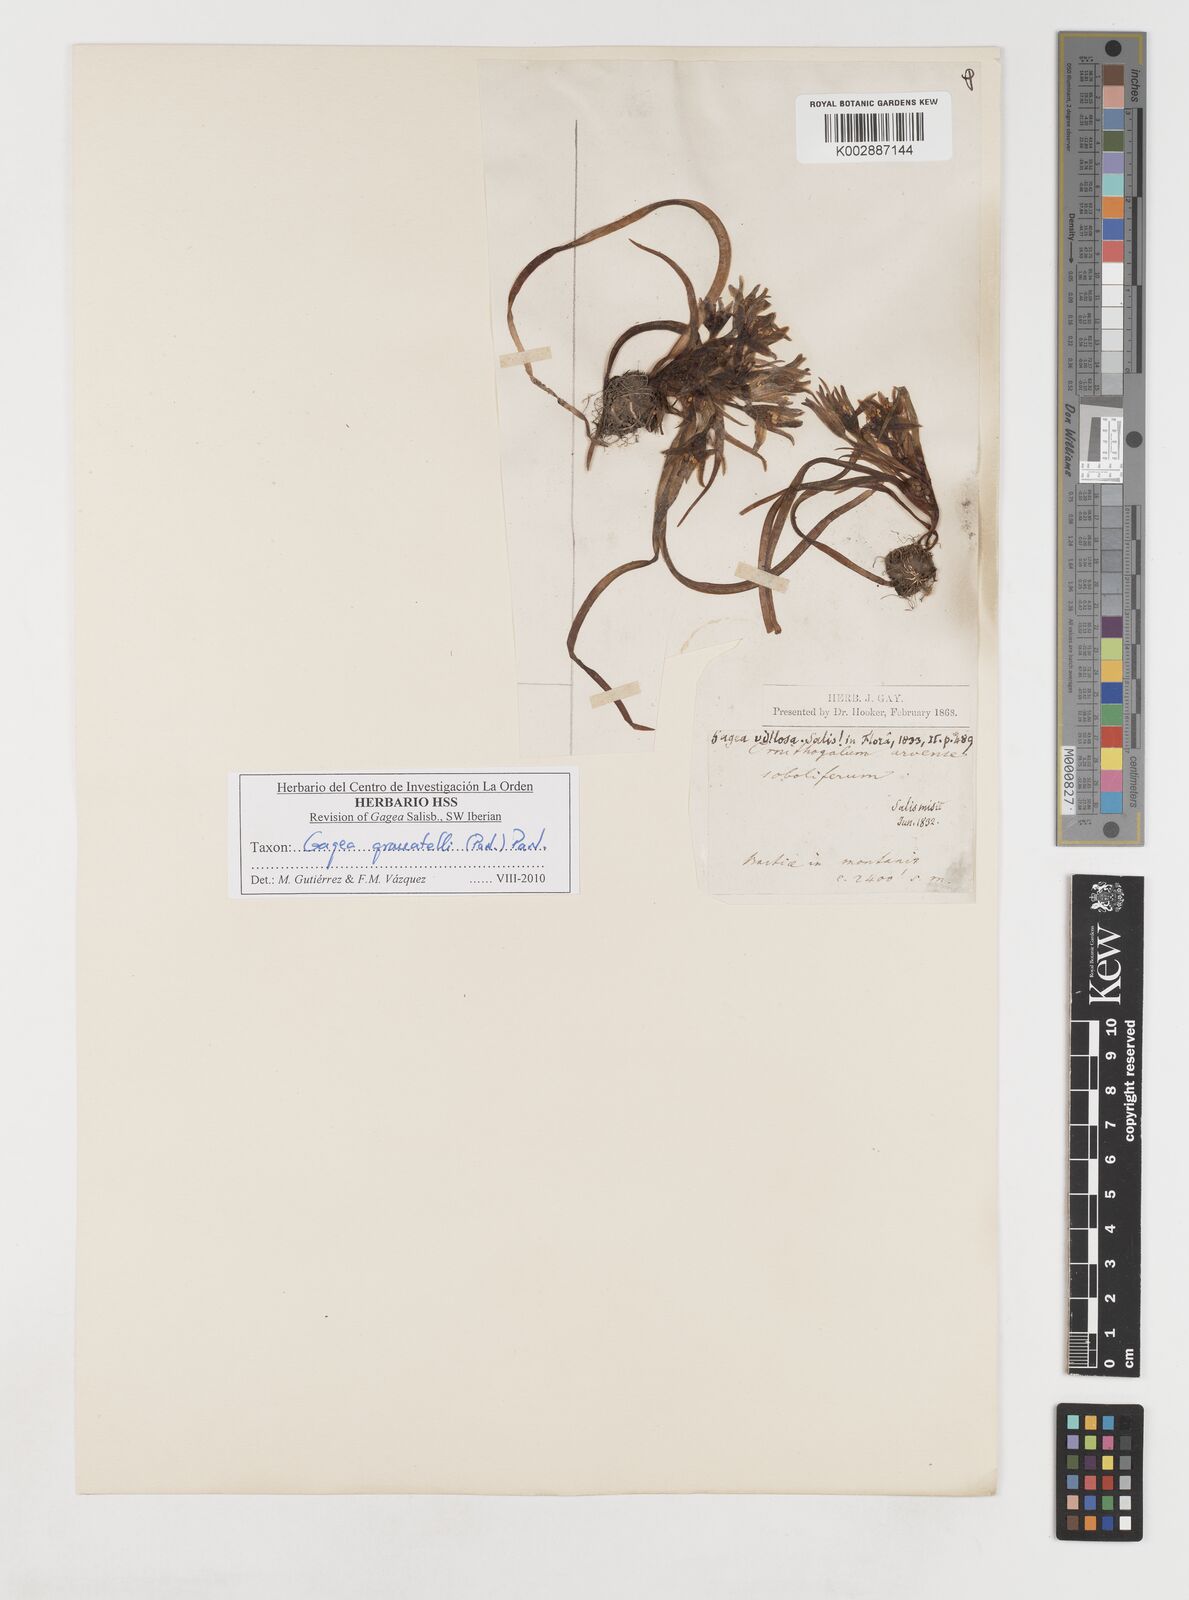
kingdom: Plantae
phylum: Tracheophyta
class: Liliopsida
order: Liliales
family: Liliaceae
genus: Gagea
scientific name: Gagea granatellii
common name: Granatelli’s gagea
